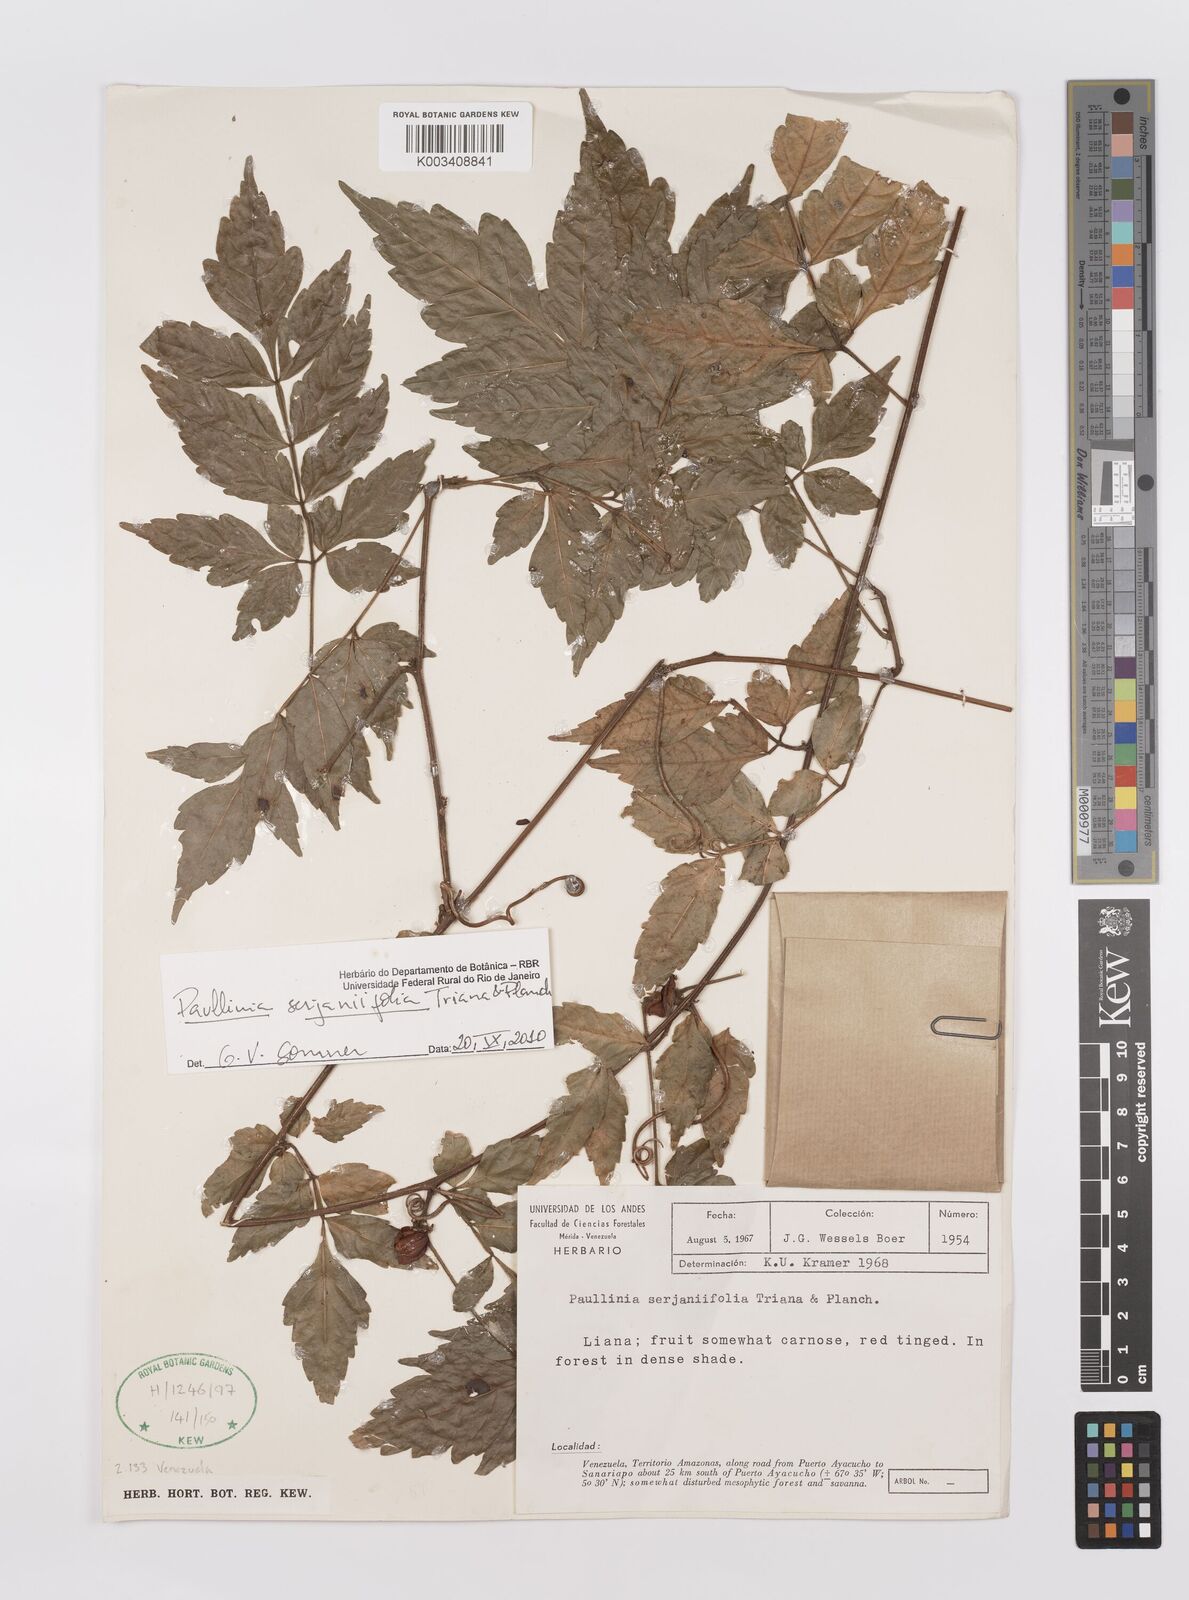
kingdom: Plantae
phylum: Tracheophyta
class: Magnoliopsida
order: Sapindales
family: Sapindaceae
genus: Paullinia
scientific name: Paullinia serjaniifolia
